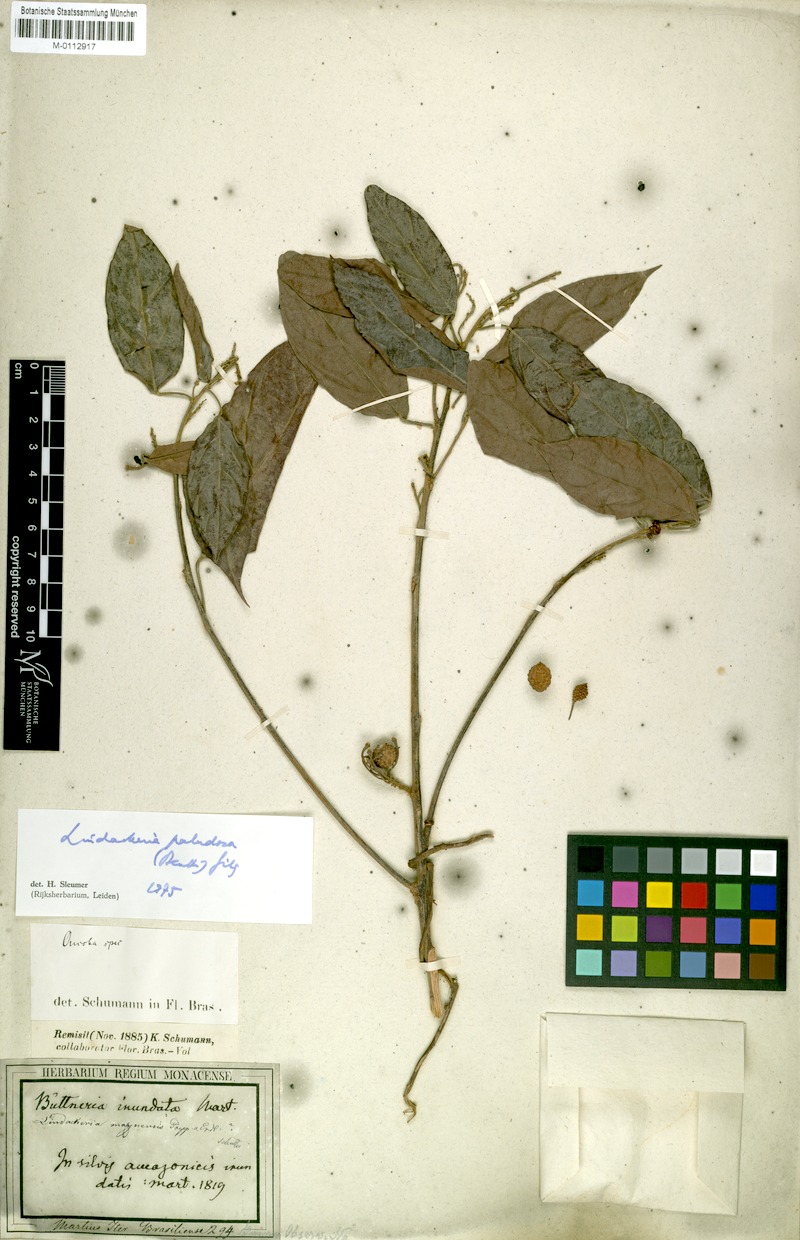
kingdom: Plantae
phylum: Tracheophyta
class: Magnoliopsida
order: Malpighiales
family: Achariaceae
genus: Lindackeria
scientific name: Lindackeria paludosa
